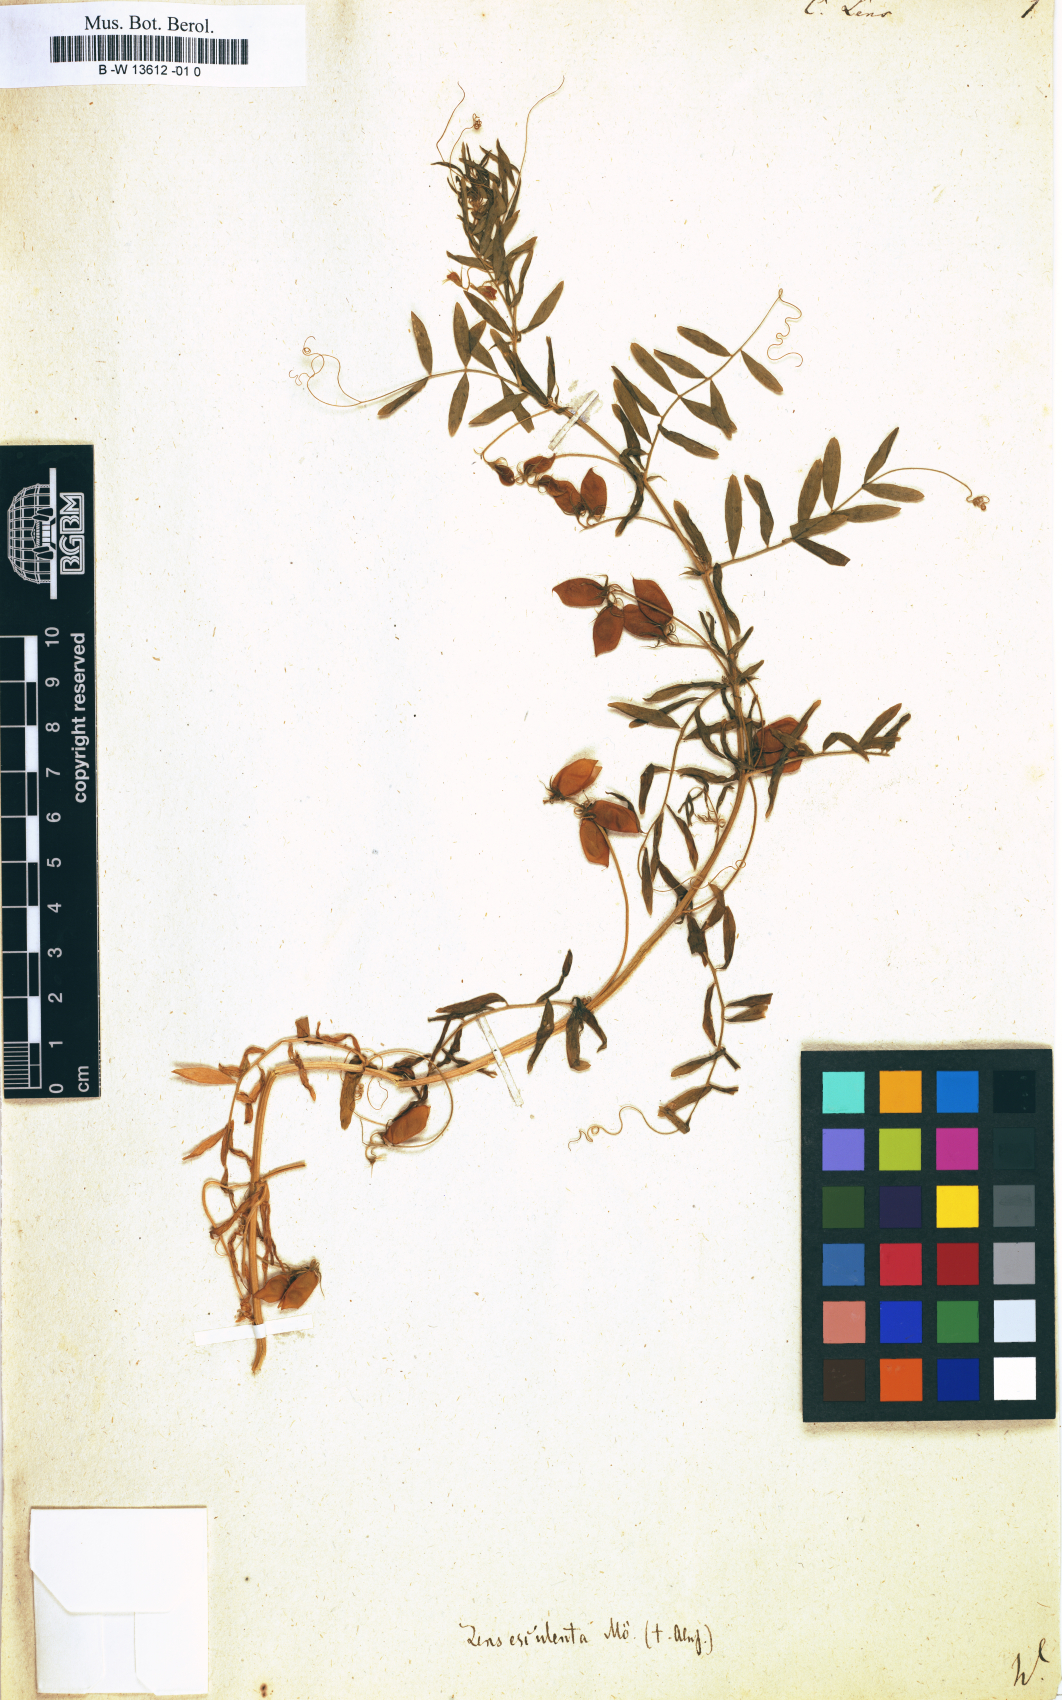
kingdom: Plantae
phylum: Tracheophyta
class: Magnoliopsida
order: Fabales
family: Fabaceae
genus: Vicia
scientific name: Vicia lens
